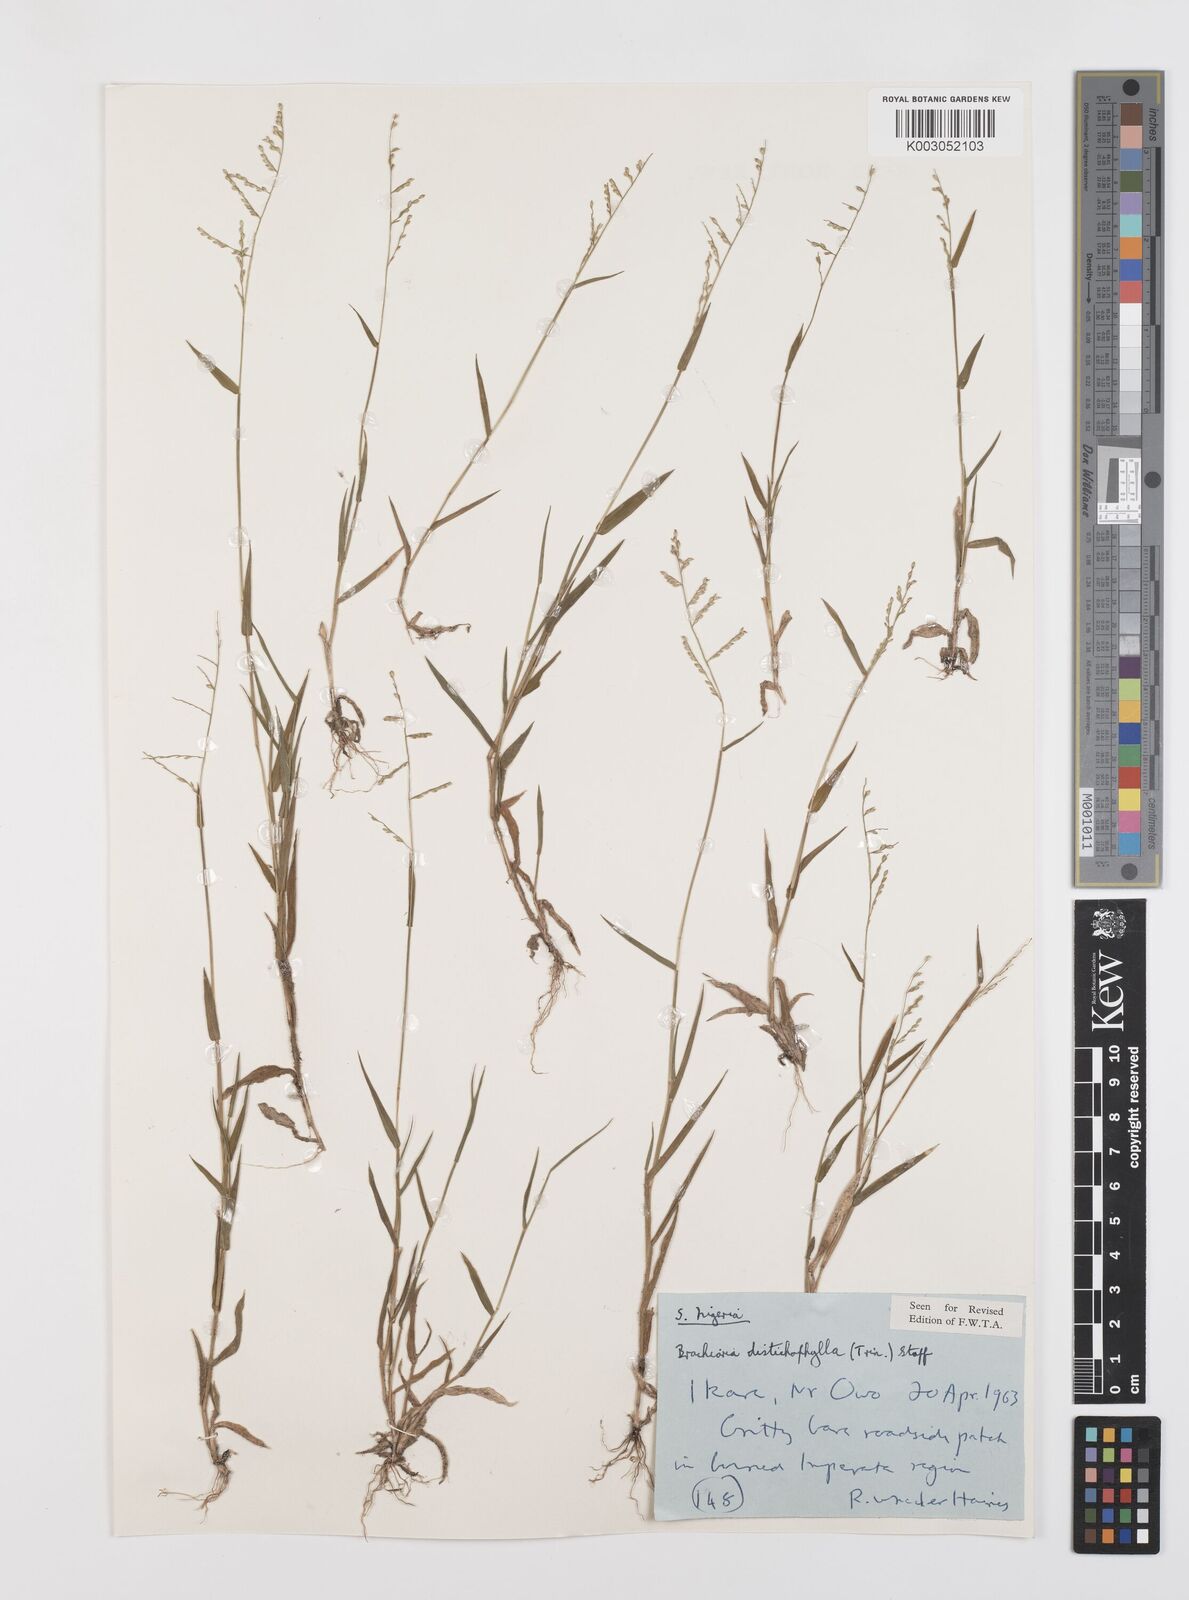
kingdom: Plantae
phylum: Tracheophyta
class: Liliopsida
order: Poales
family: Poaceae
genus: Urochloa
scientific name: Urochloa villosa
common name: Hairy signalgrass
